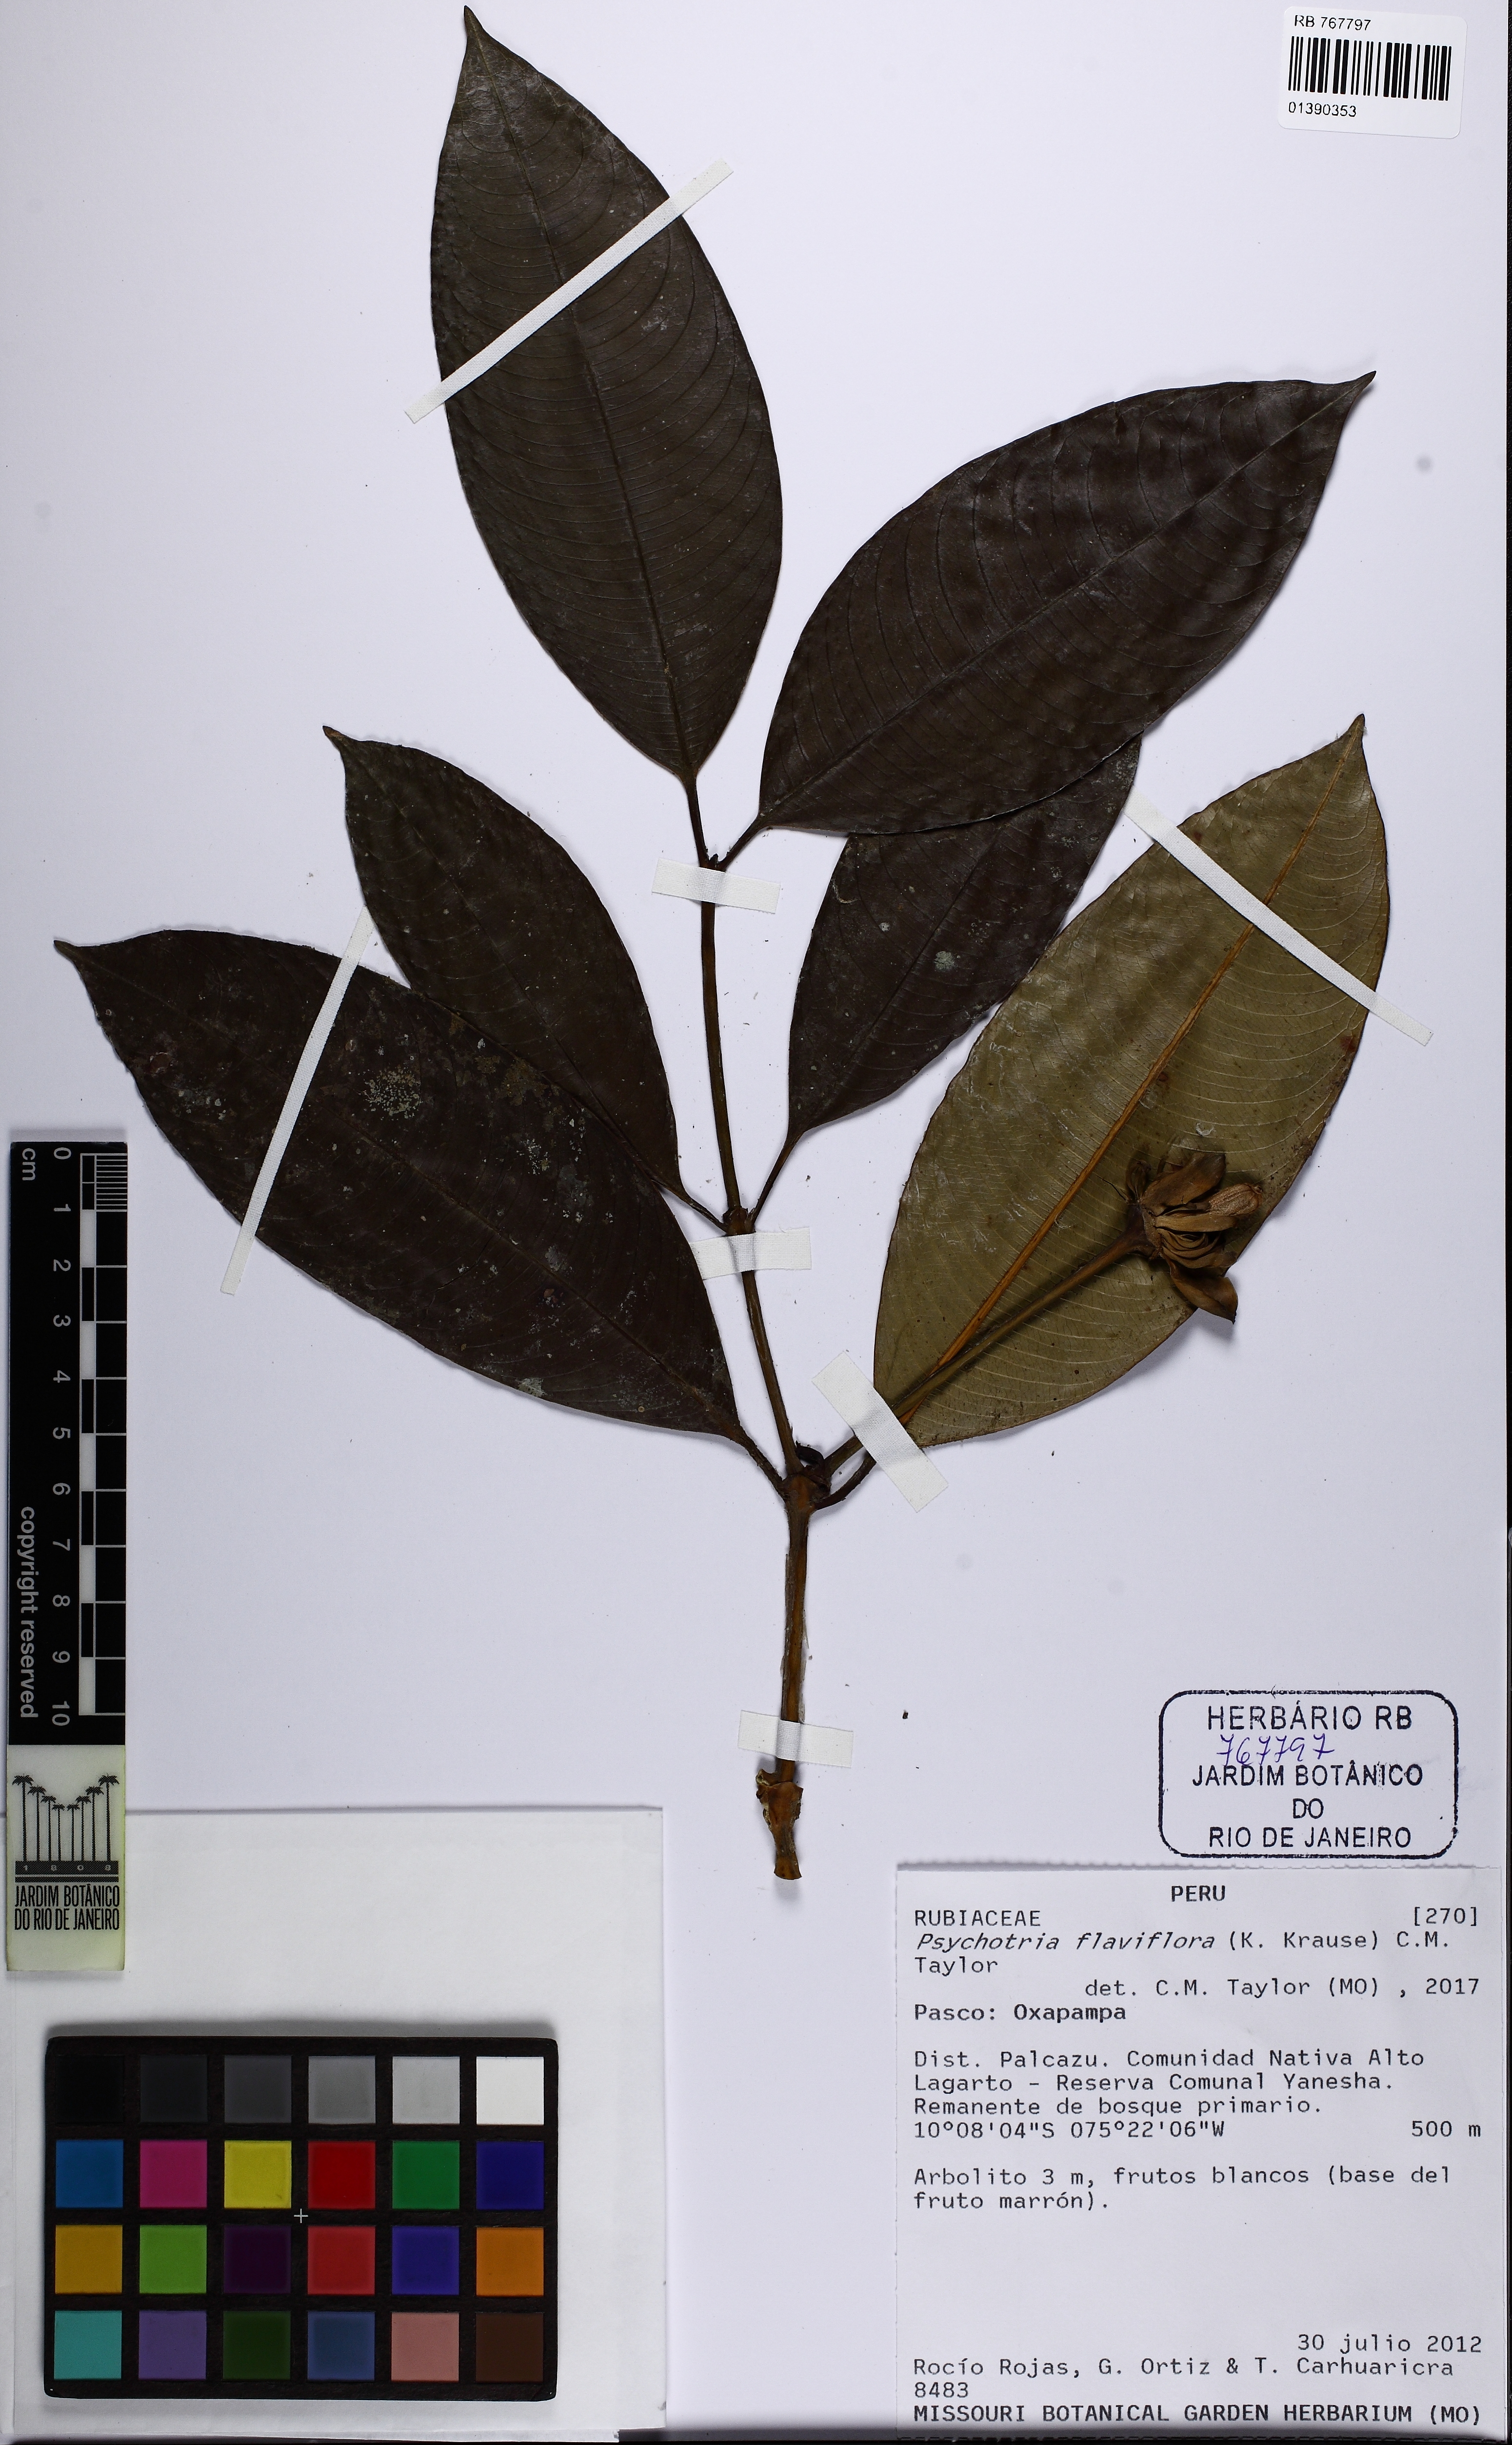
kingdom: Plantae
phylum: Tracheophyta
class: Magnoliopsida
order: Gentianales
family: Rubiaceae
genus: Palicourea
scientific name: Palicourea flaviflora
